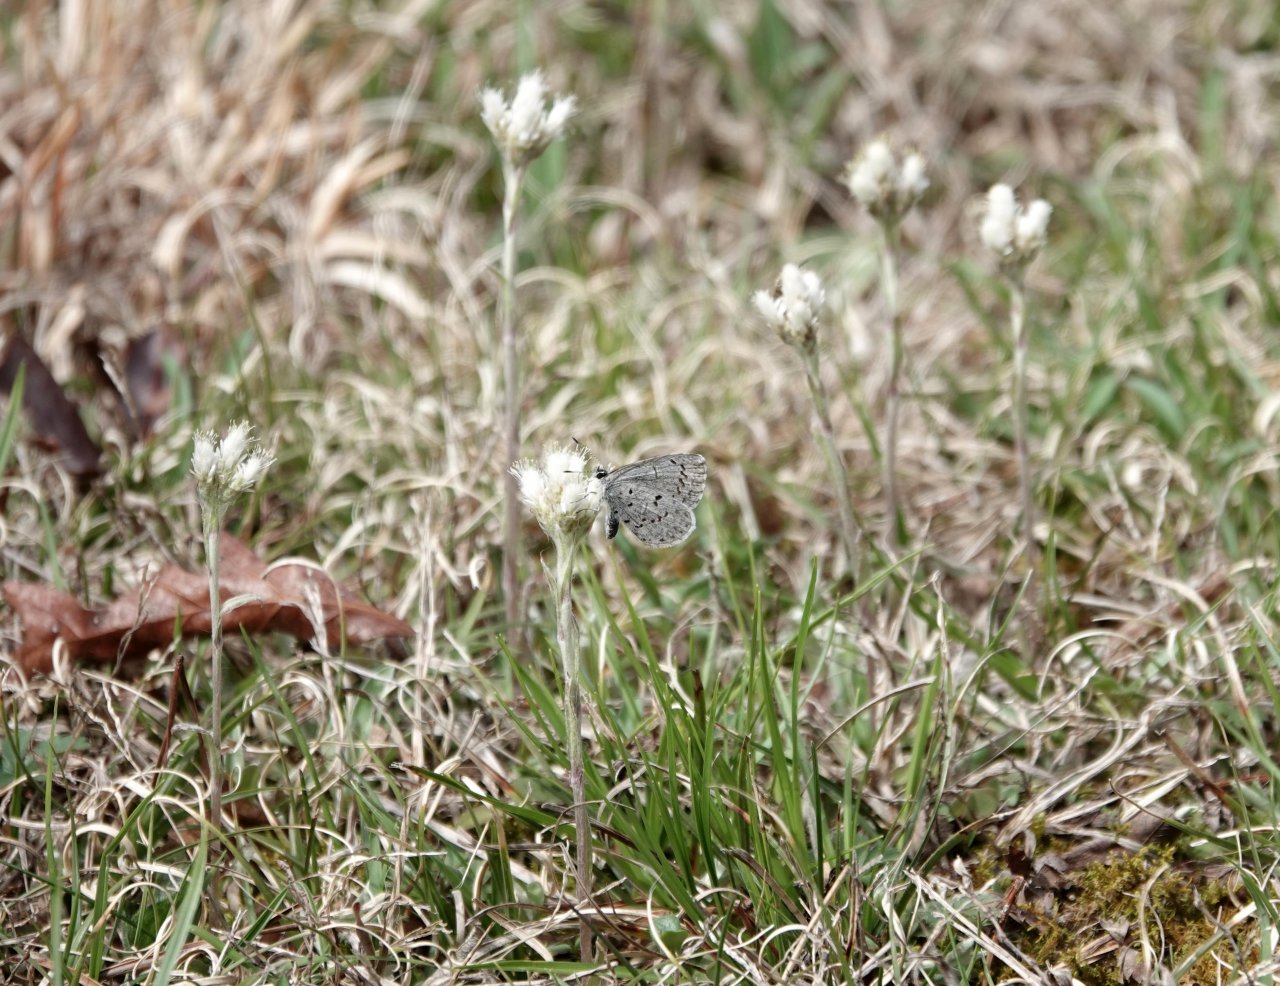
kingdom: Animalia
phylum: Arthropoda
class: Insecta
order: Lepidoptera
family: Lycaenidae
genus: Cyaniris
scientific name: Cyaniris neglecta
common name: Summer Azure
